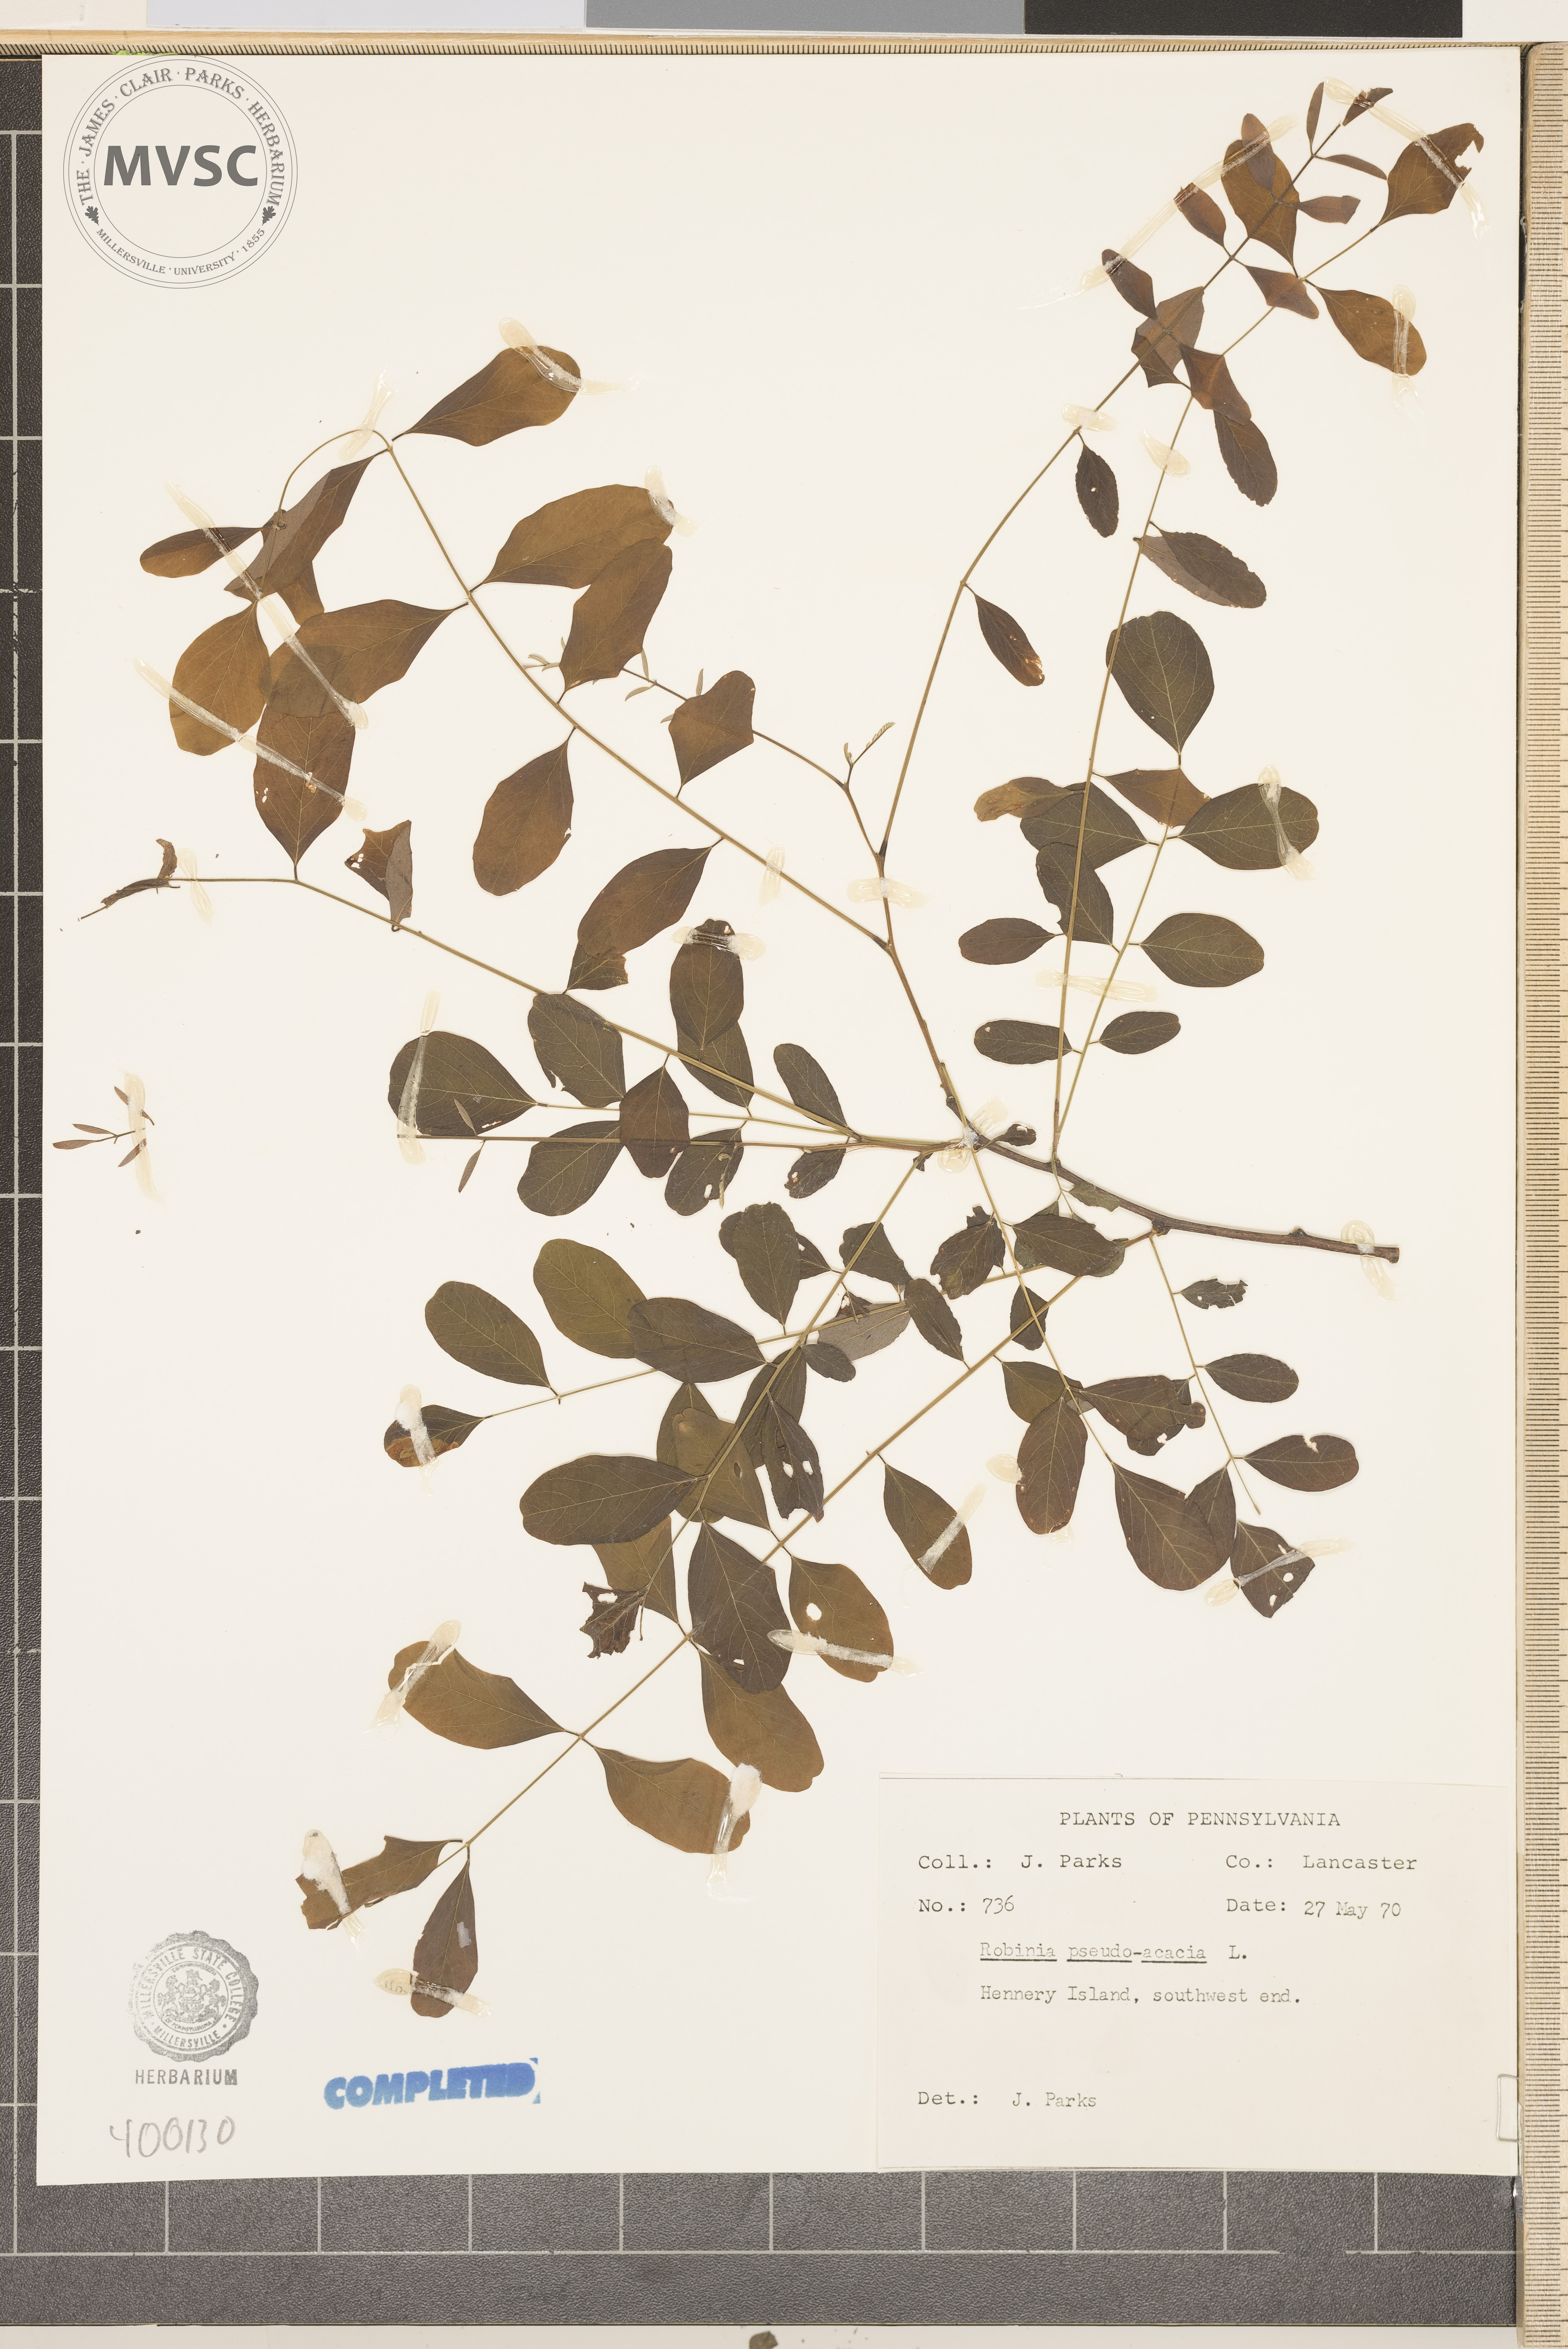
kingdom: Plantae
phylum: Tracheophyta
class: Magnoliopsida
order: Fabales
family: Fabaceae
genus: Robinia
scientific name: Robinia pseudoacacia
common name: black locust
